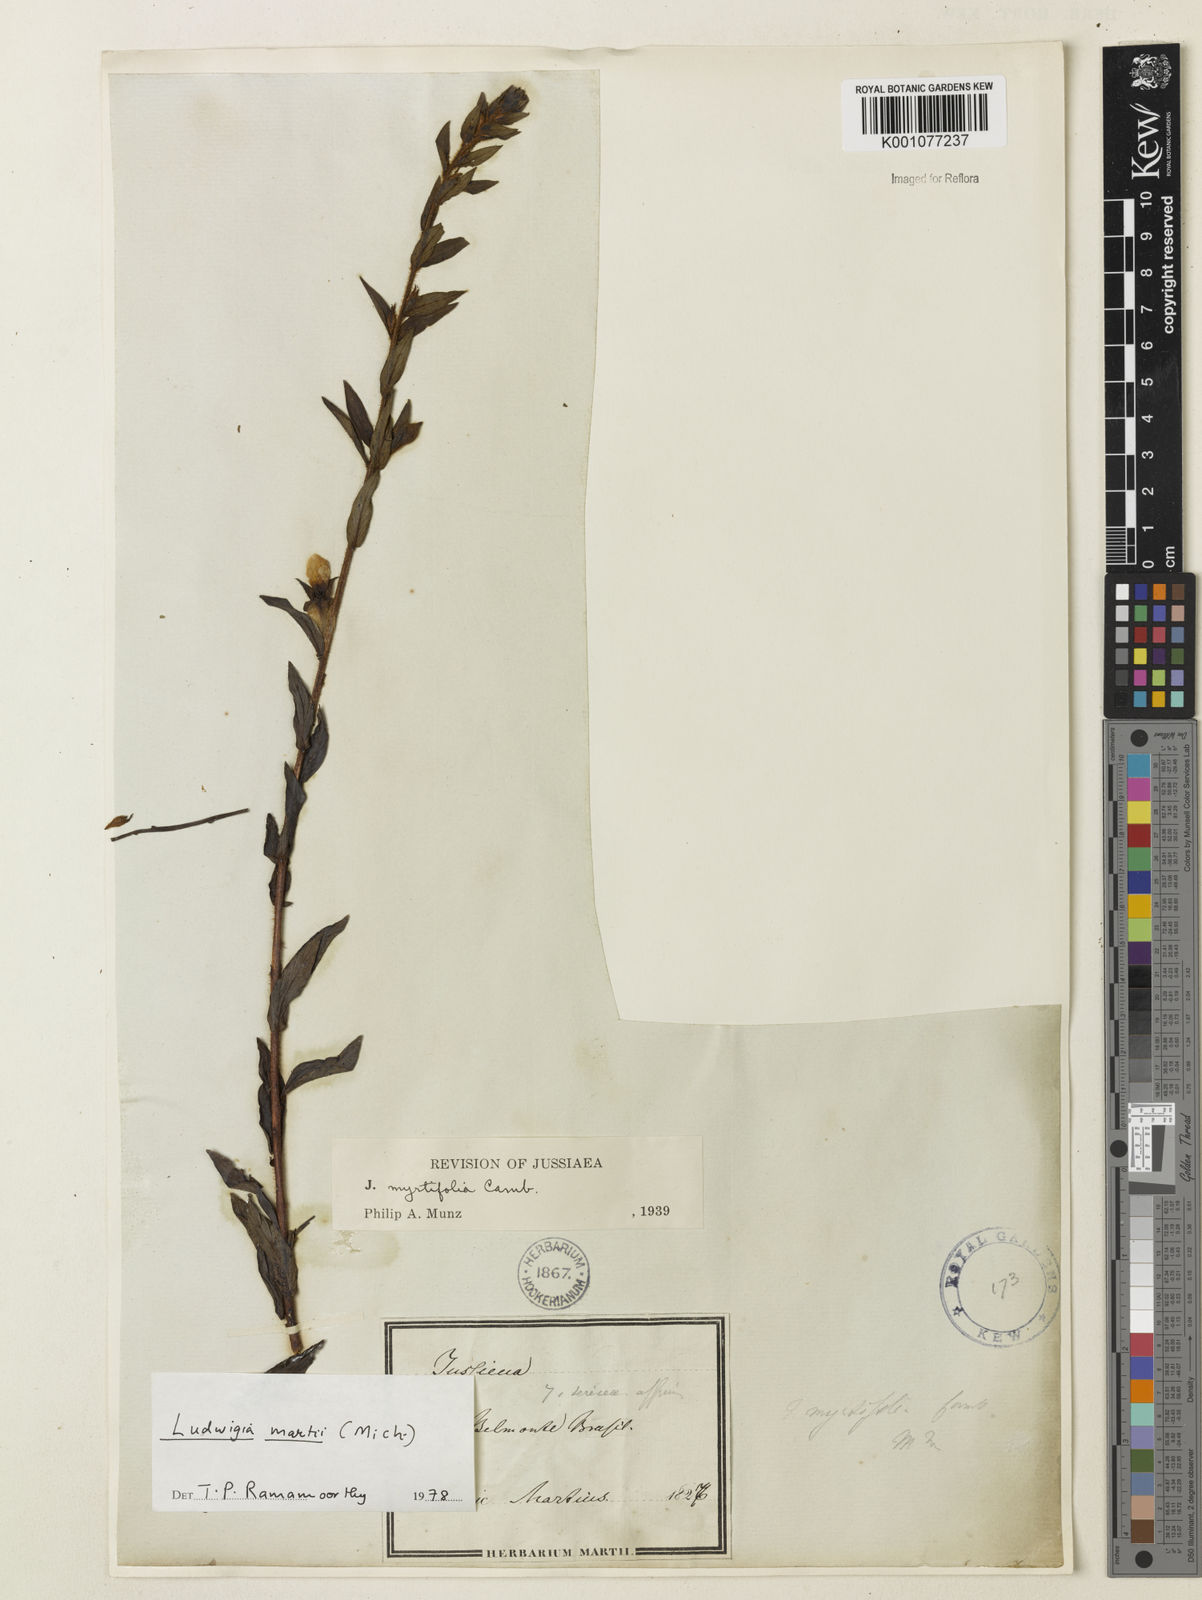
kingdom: Plantae
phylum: Tracheophyta
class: Magnoliopsida
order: Myrtales
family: Onagraceae
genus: Ludwigia
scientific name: Ludwigia martii
